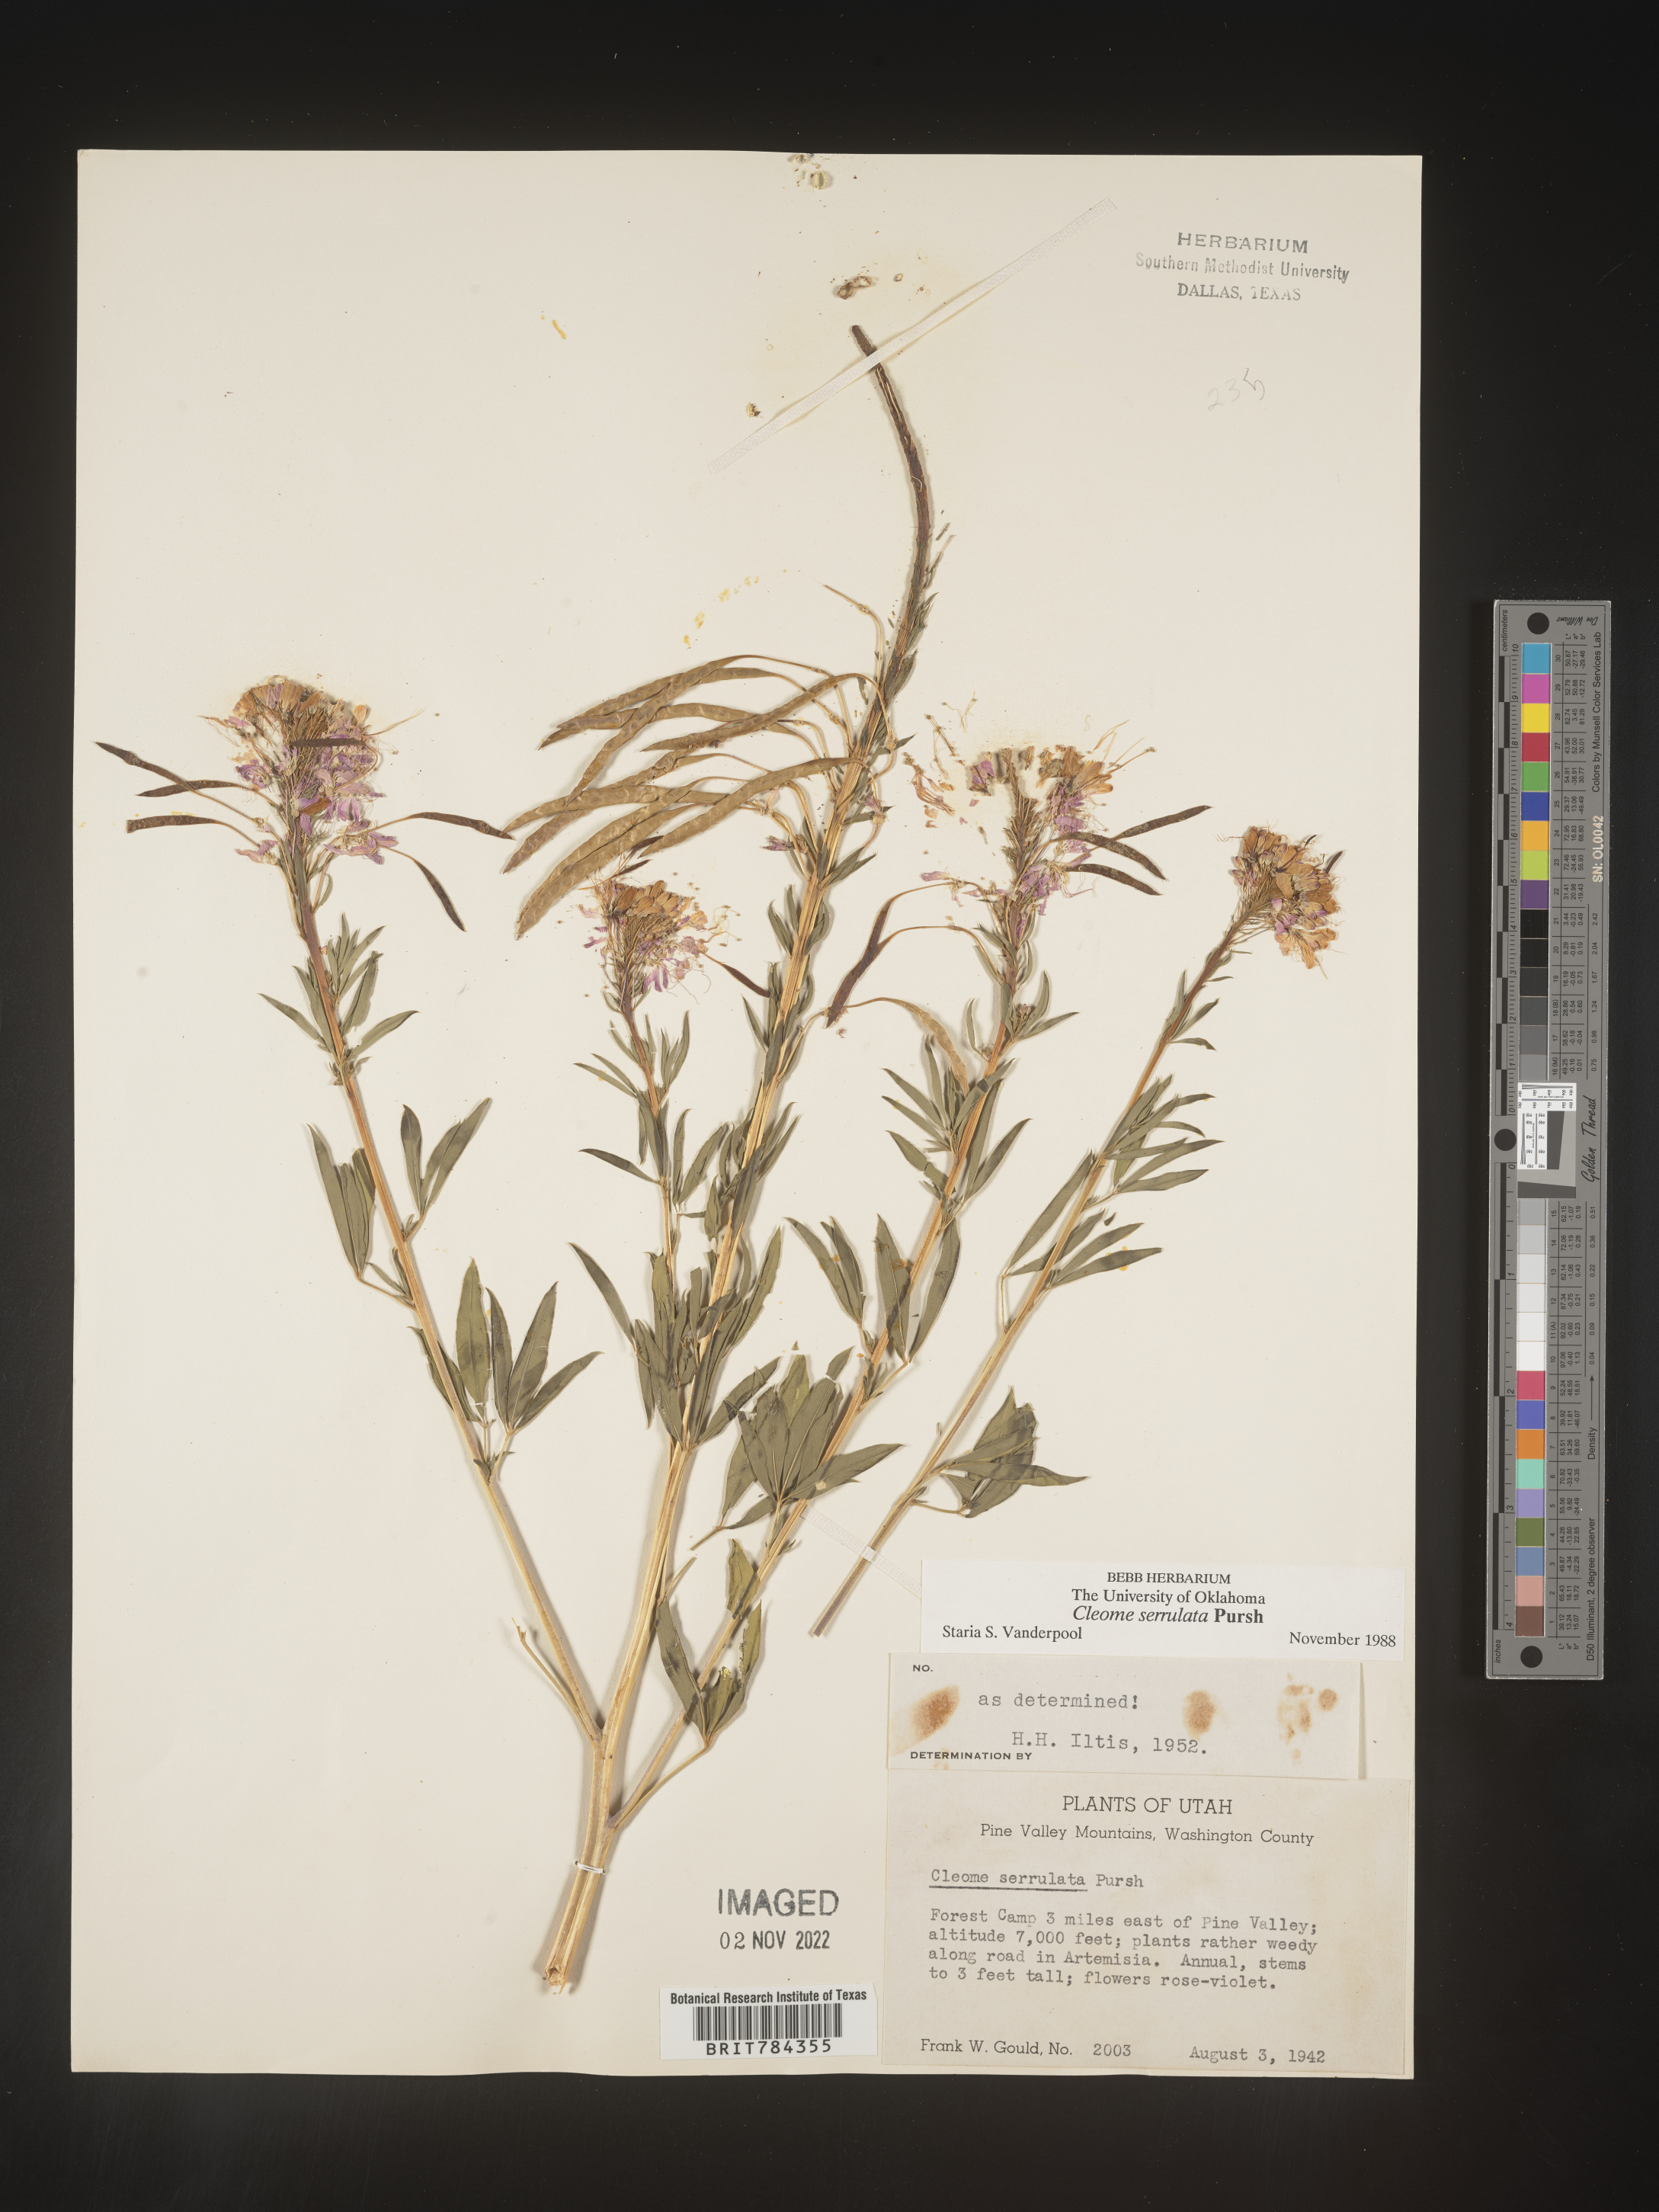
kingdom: Plantae
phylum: Tracheophyta
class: Magnoliopsida
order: Brassicales
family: Cleomaceae
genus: Cleomella
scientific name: Cleomella serrulata
